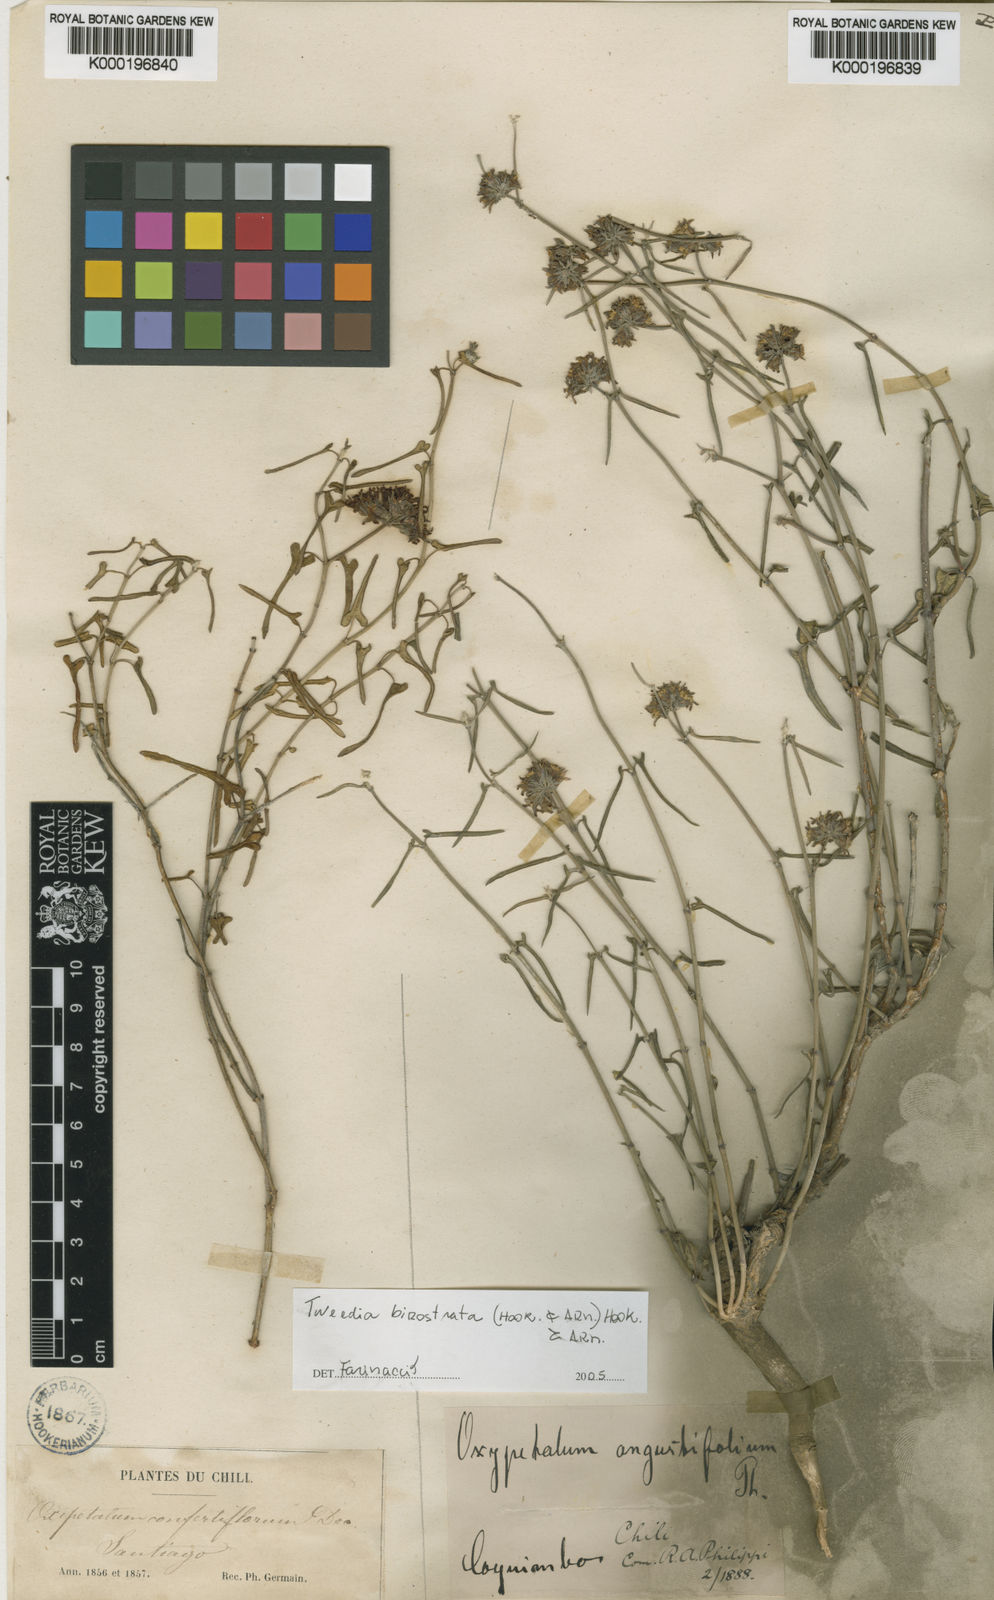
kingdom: Plantae
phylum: Tracheophyta
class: Magnoliopsida
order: Gentianales
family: Apocynaceae
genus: Tweedia
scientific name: Tweedia birostrata
